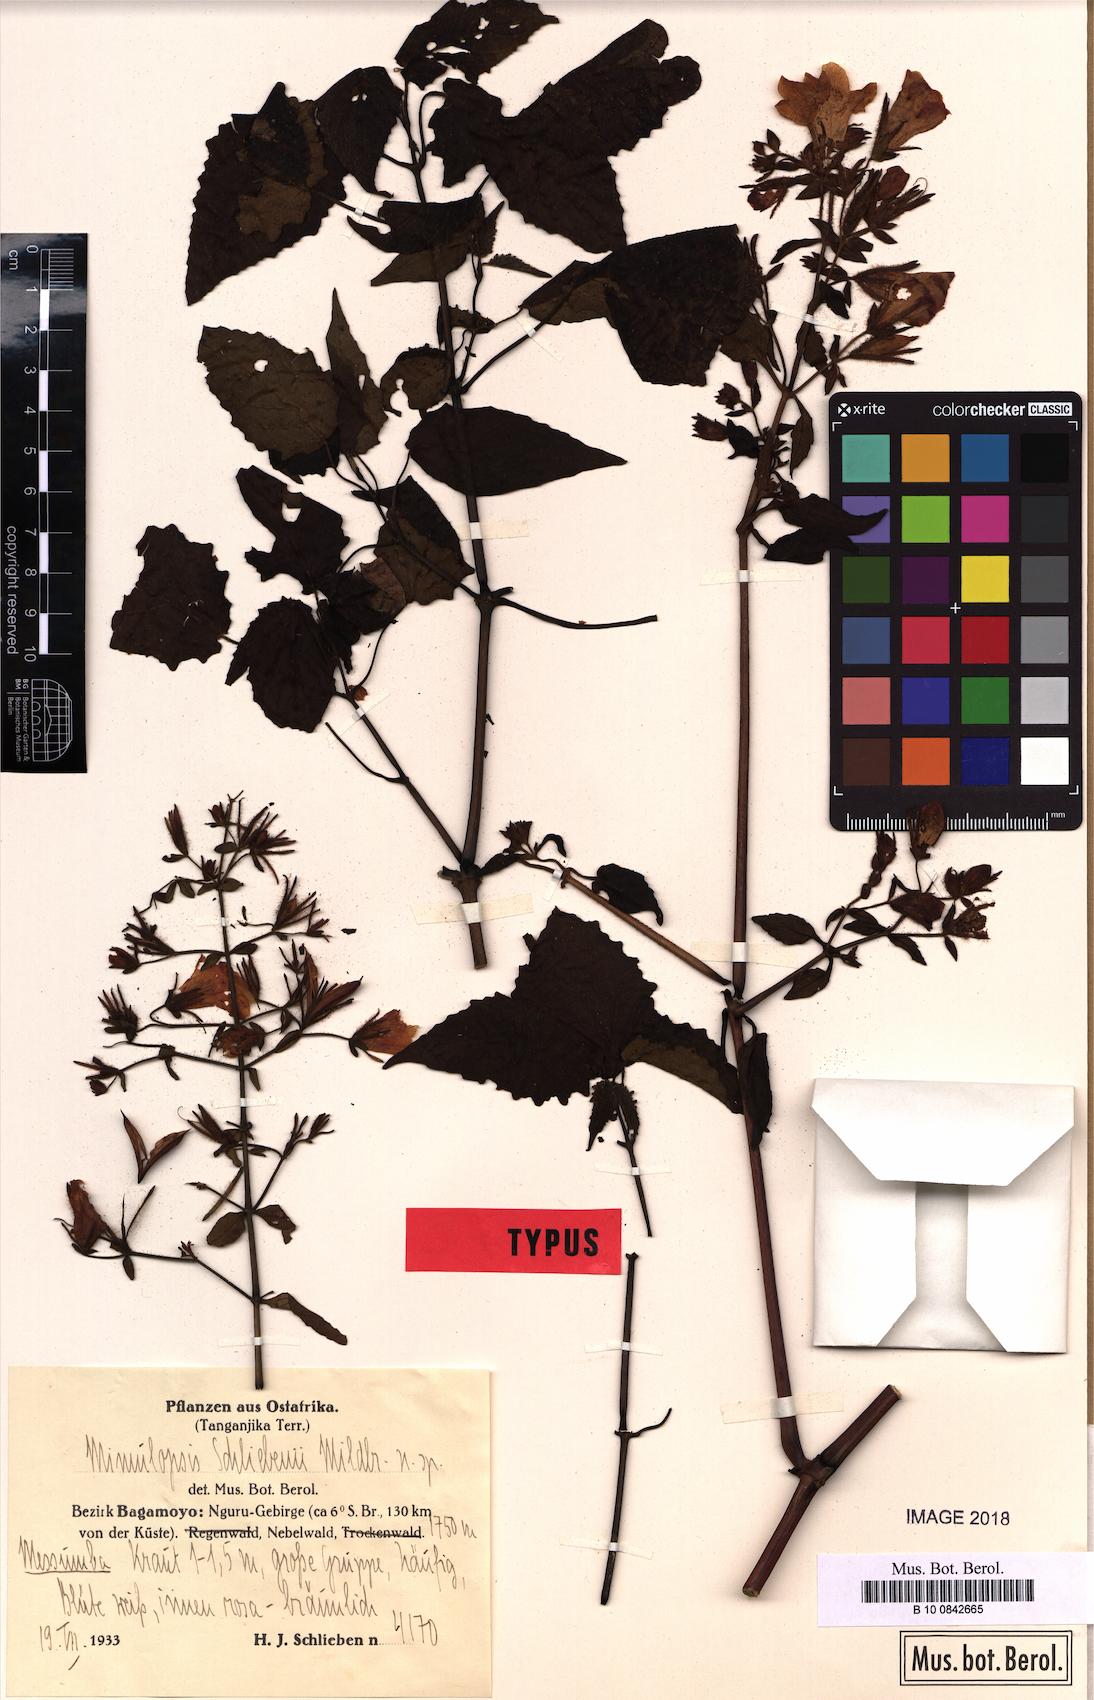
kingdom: Plantae
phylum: Tracheophyta
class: Magnoliopsida
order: Lamiales
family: Acanthaceae
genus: Mimulopsis
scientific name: Mimulopsis schliebenii
